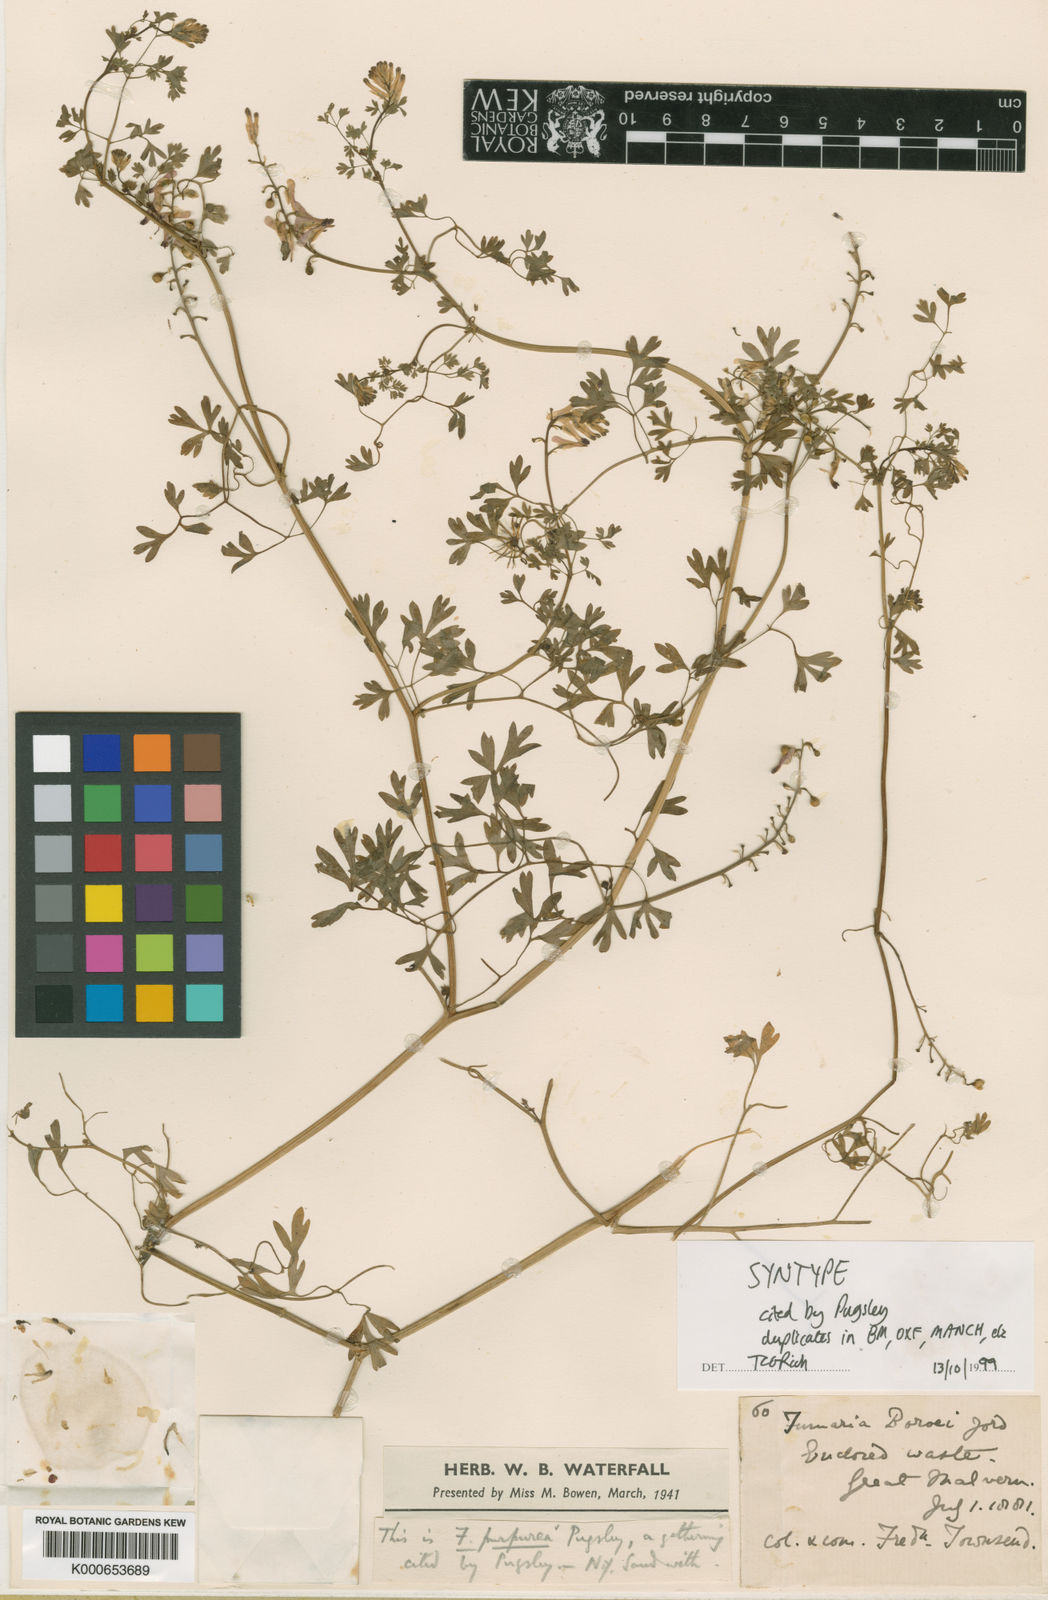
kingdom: Plantae
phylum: Tracheophyta
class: Magnoliopsida
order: Ranunculales
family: Papaveraceae
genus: Fumaria
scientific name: Fumaria purpurea
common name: Purple ramping-fumitory
